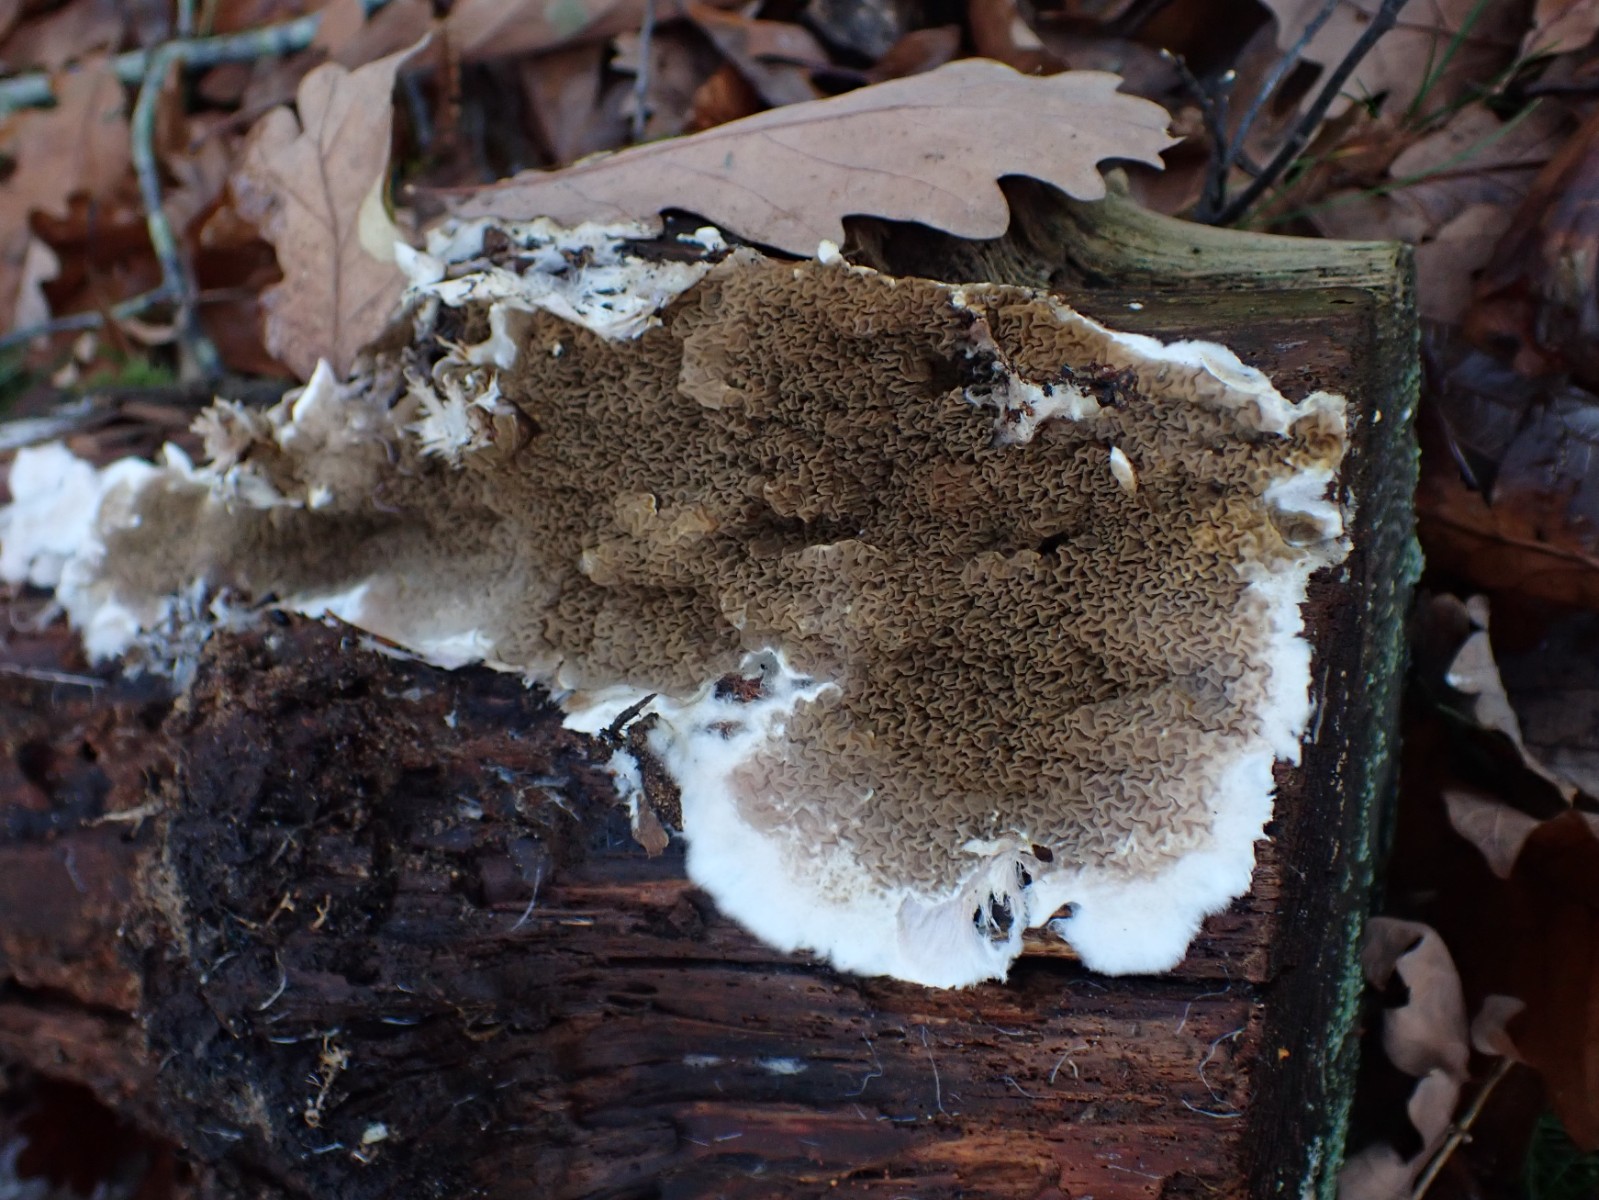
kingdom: Fungi
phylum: Basidiomycota
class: Agaricomycetes
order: Boletales
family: Serpulaceae
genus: Serpula
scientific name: Serpula himantioides
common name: tyndkødet hussvamp
